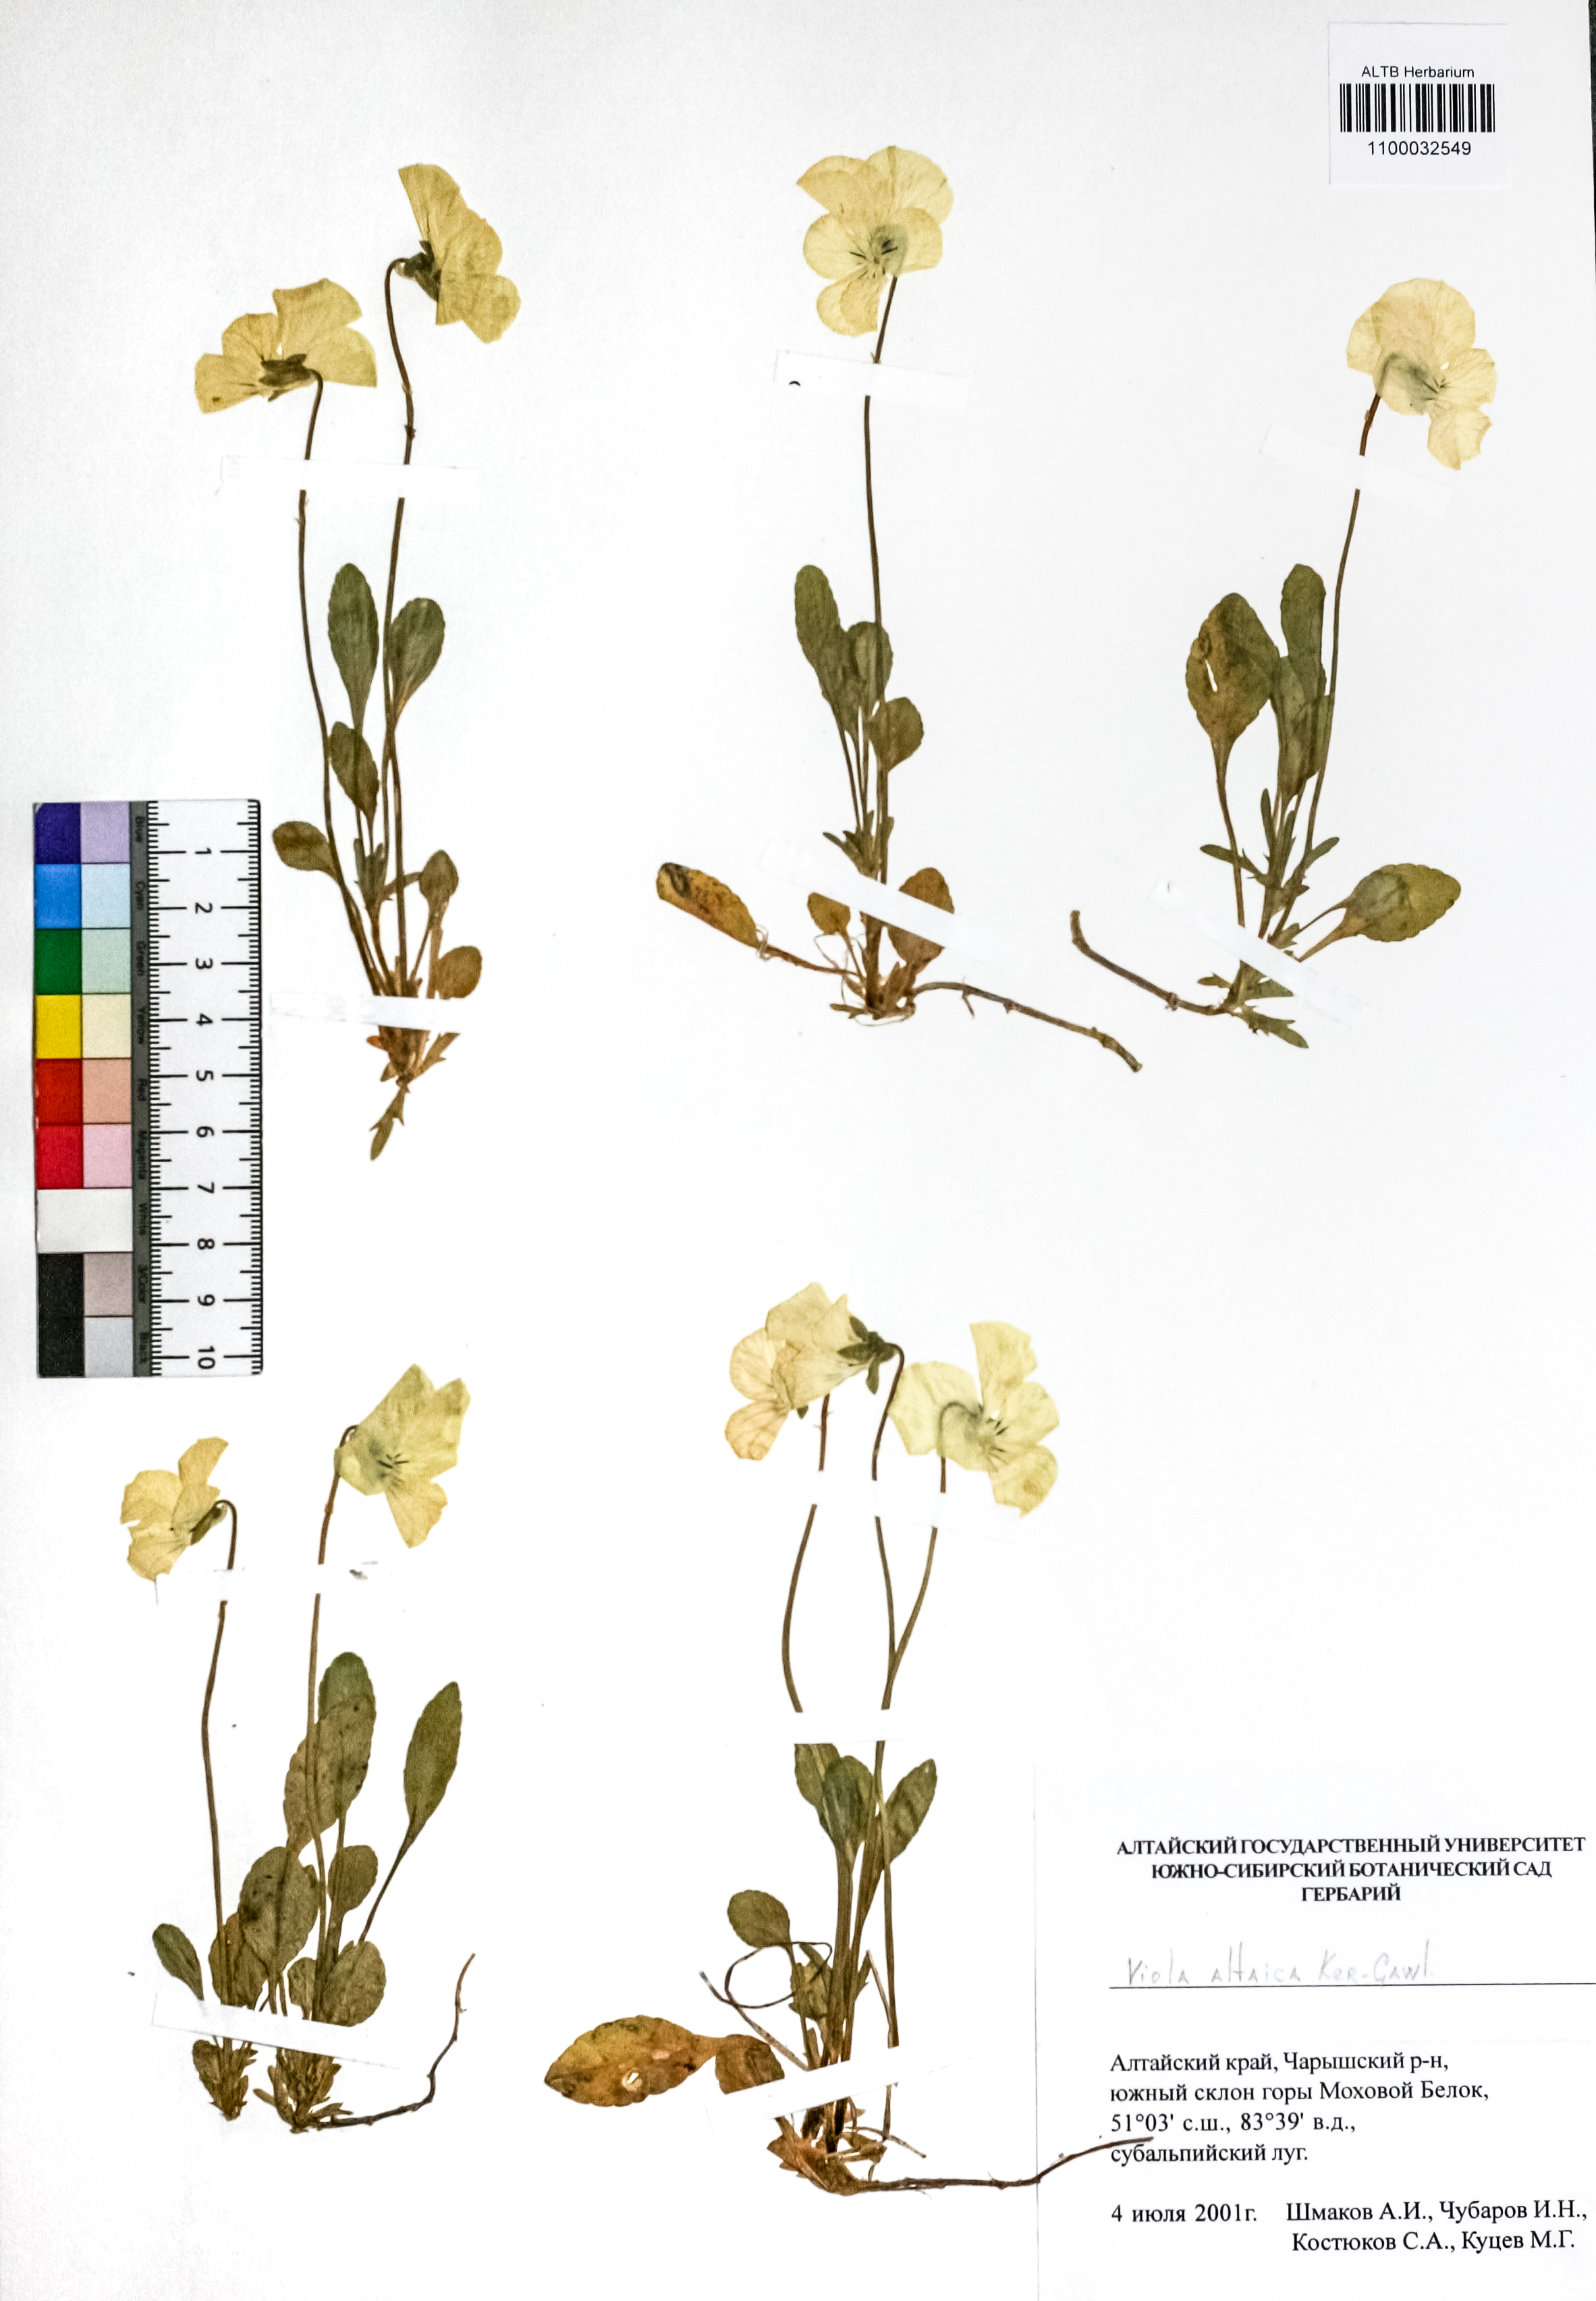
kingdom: Plantae
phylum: Tracheophyta
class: Magnoliopsida
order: Malpighiales
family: Violaceae
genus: Viola
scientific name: Viola altaica
